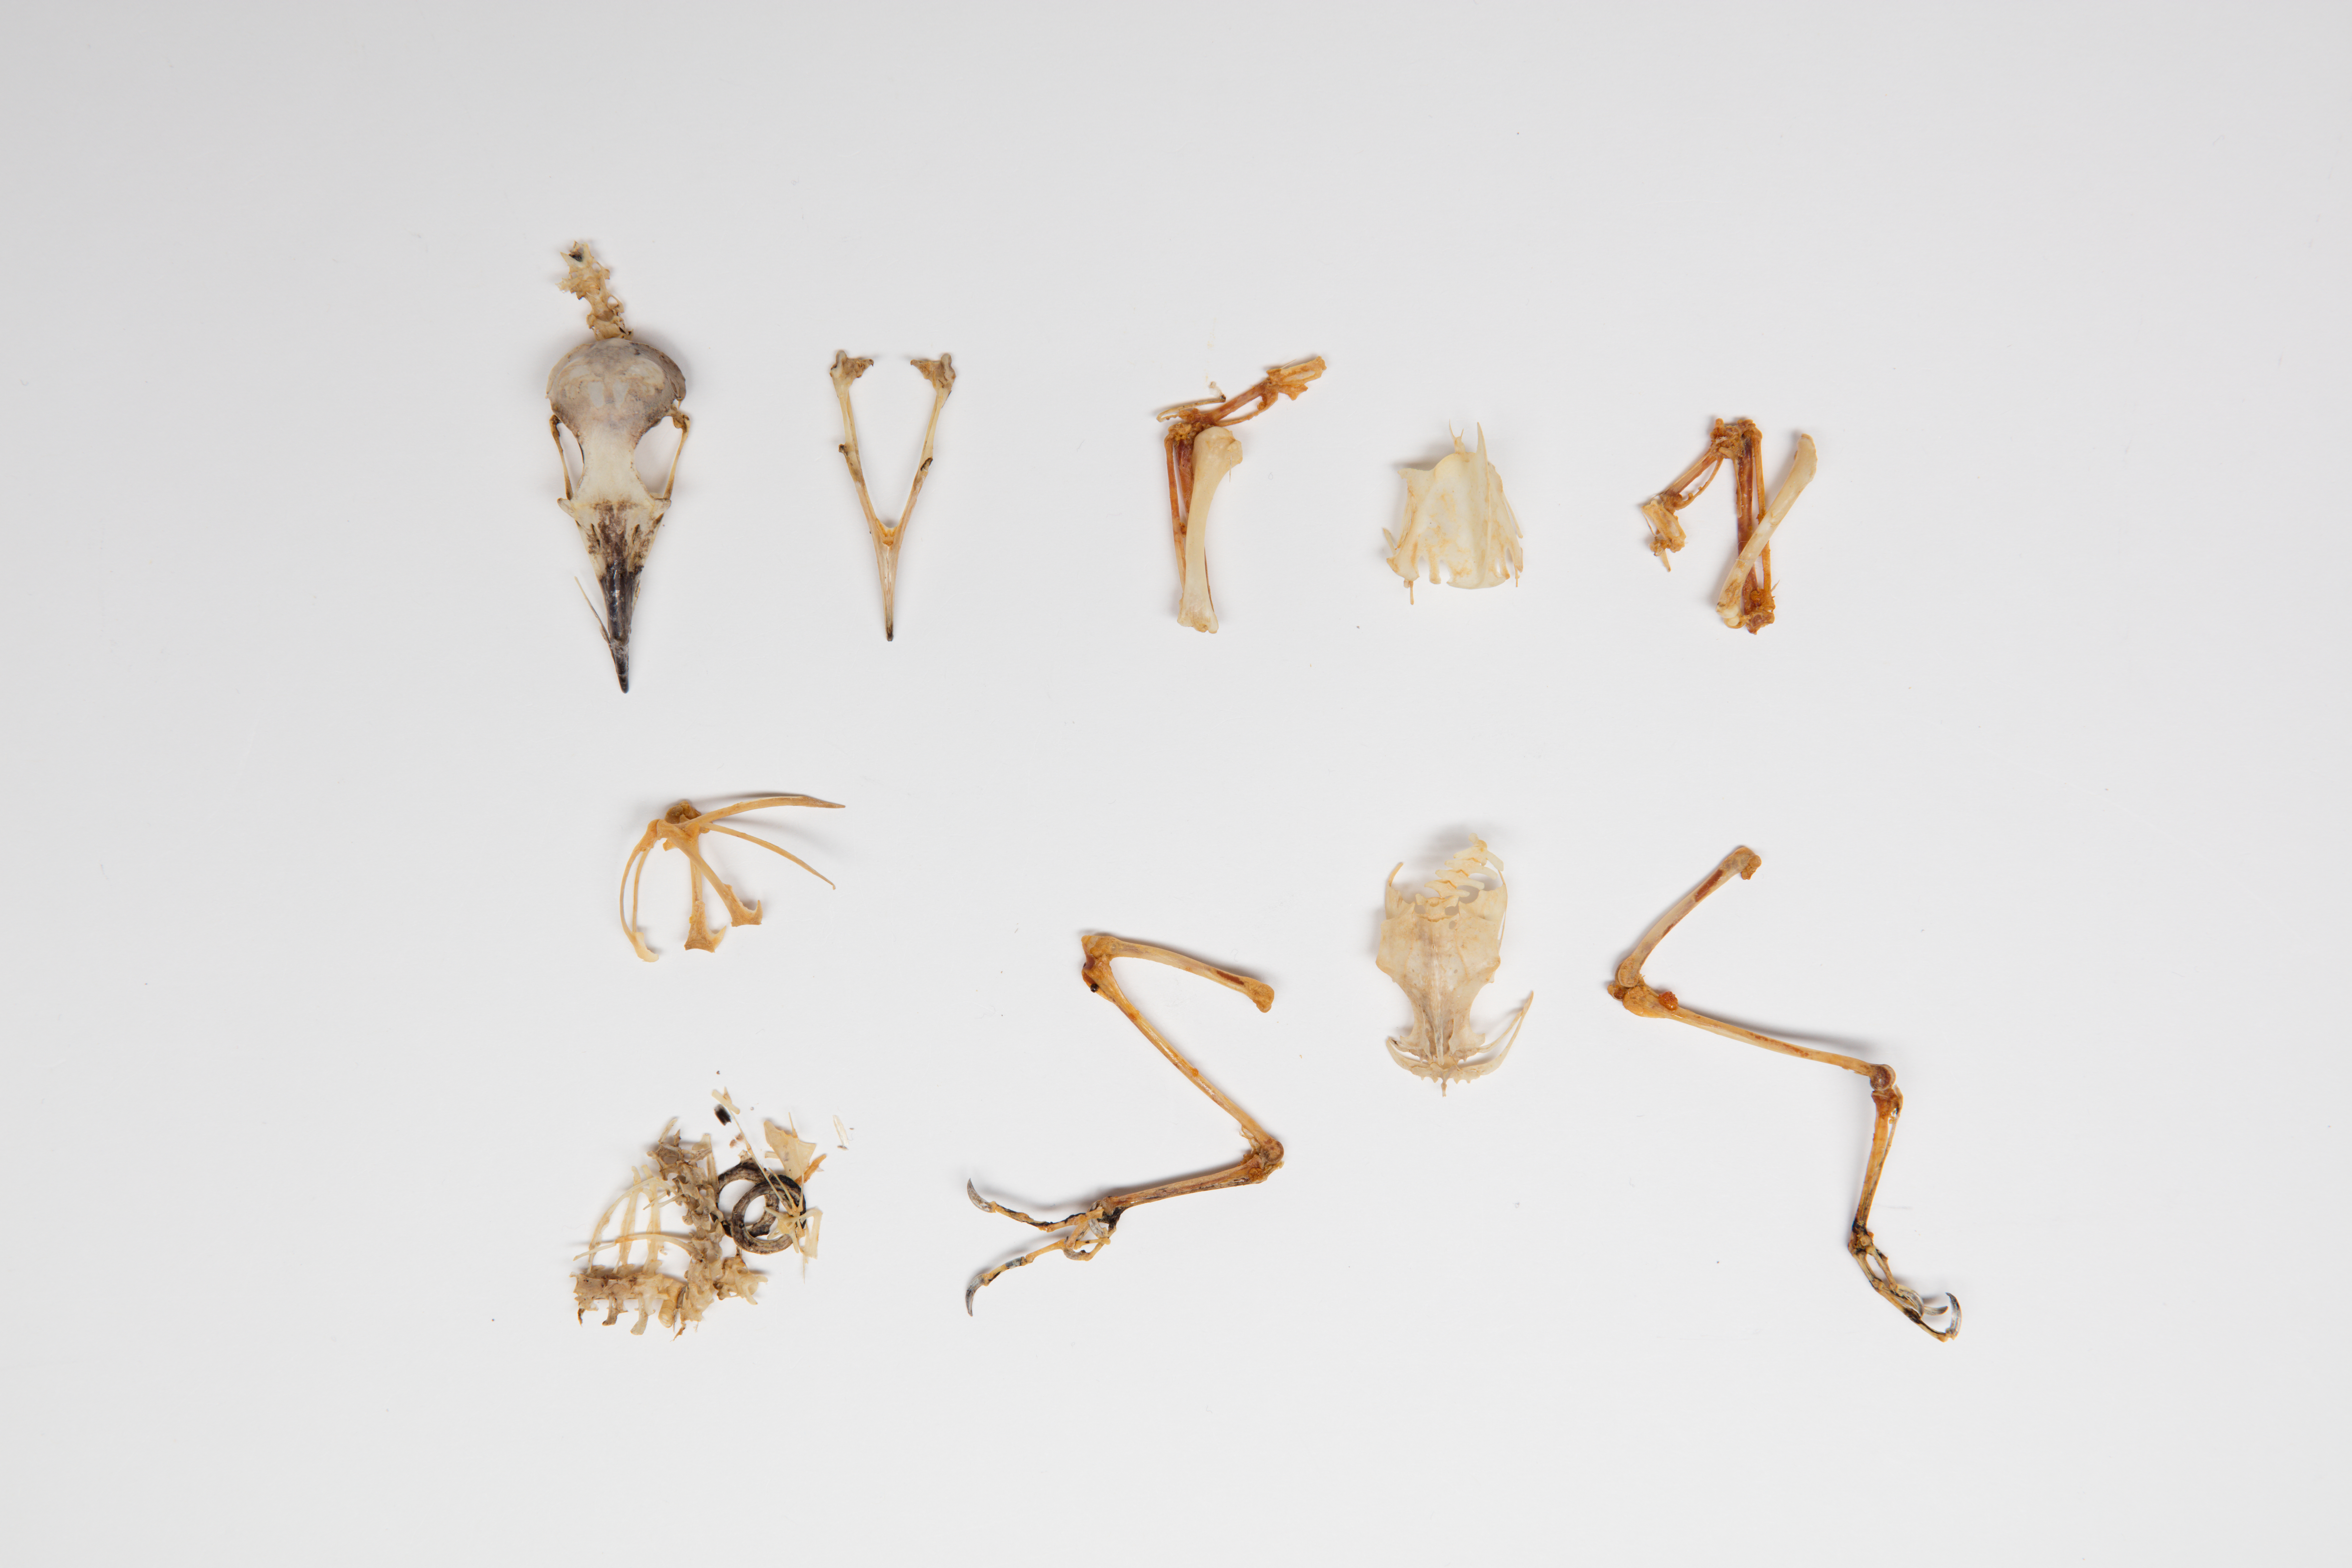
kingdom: Animalia
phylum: Chordata
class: Aves
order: Cuculiformes
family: Cuculidae
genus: Coccyzus
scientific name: Coccyzus americanus
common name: Yellow-billed cuckoo
